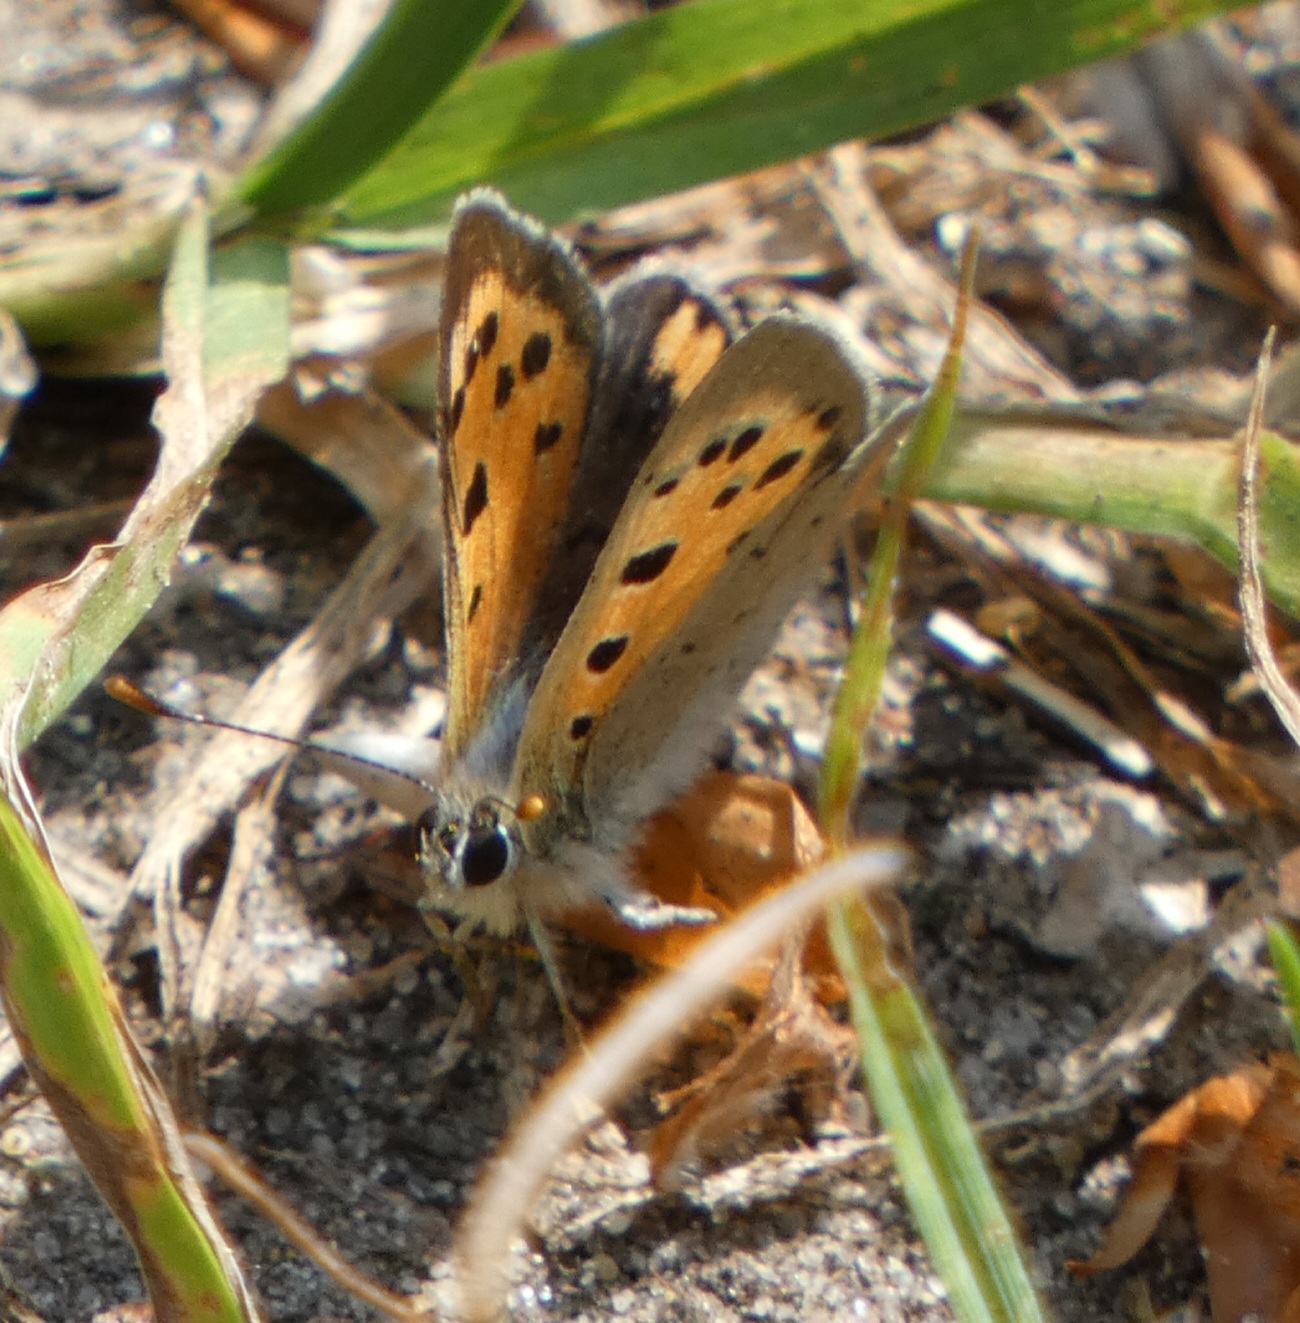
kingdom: Animalia
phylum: Arthropoda
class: Insecta
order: Lepidoptera
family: Lycaenidae
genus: Lycaena
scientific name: Lycaena phlaeas
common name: Lille ildfugl
